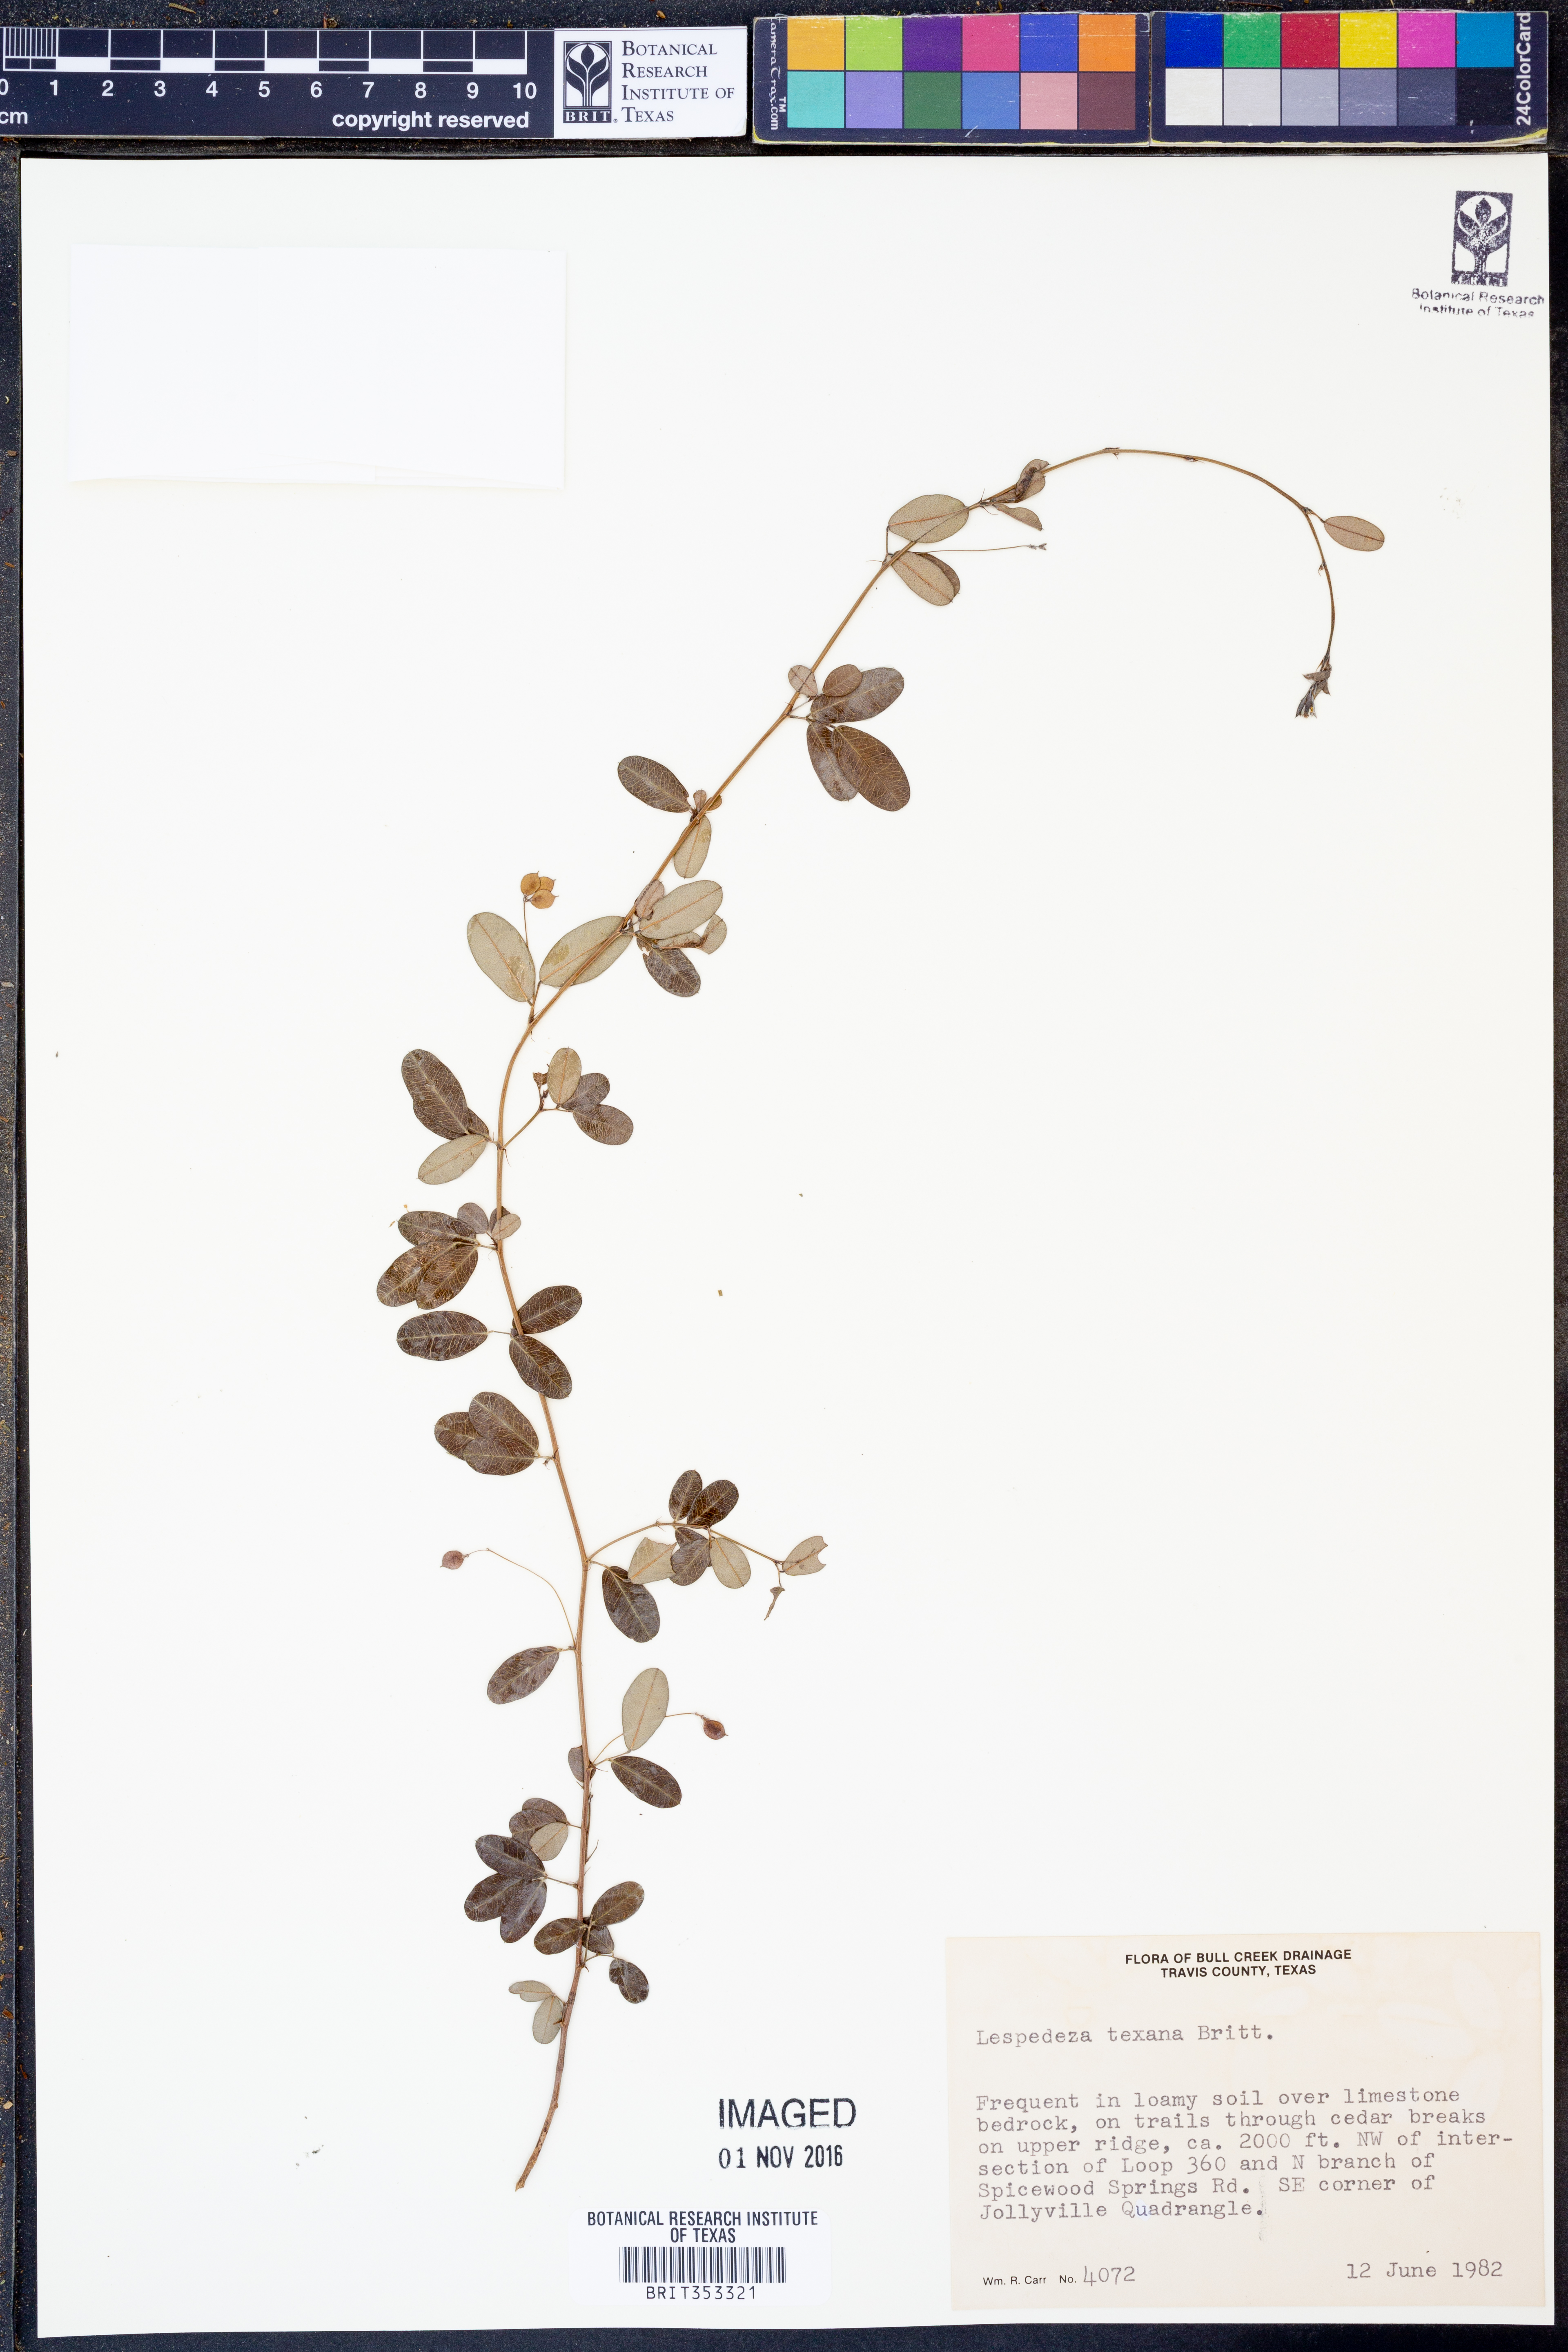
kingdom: Plantae
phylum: Tracheophyta
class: Magnoliopsida
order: Fabales
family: Fabaceae
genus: Lespedeza
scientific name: Lespedeza texana
